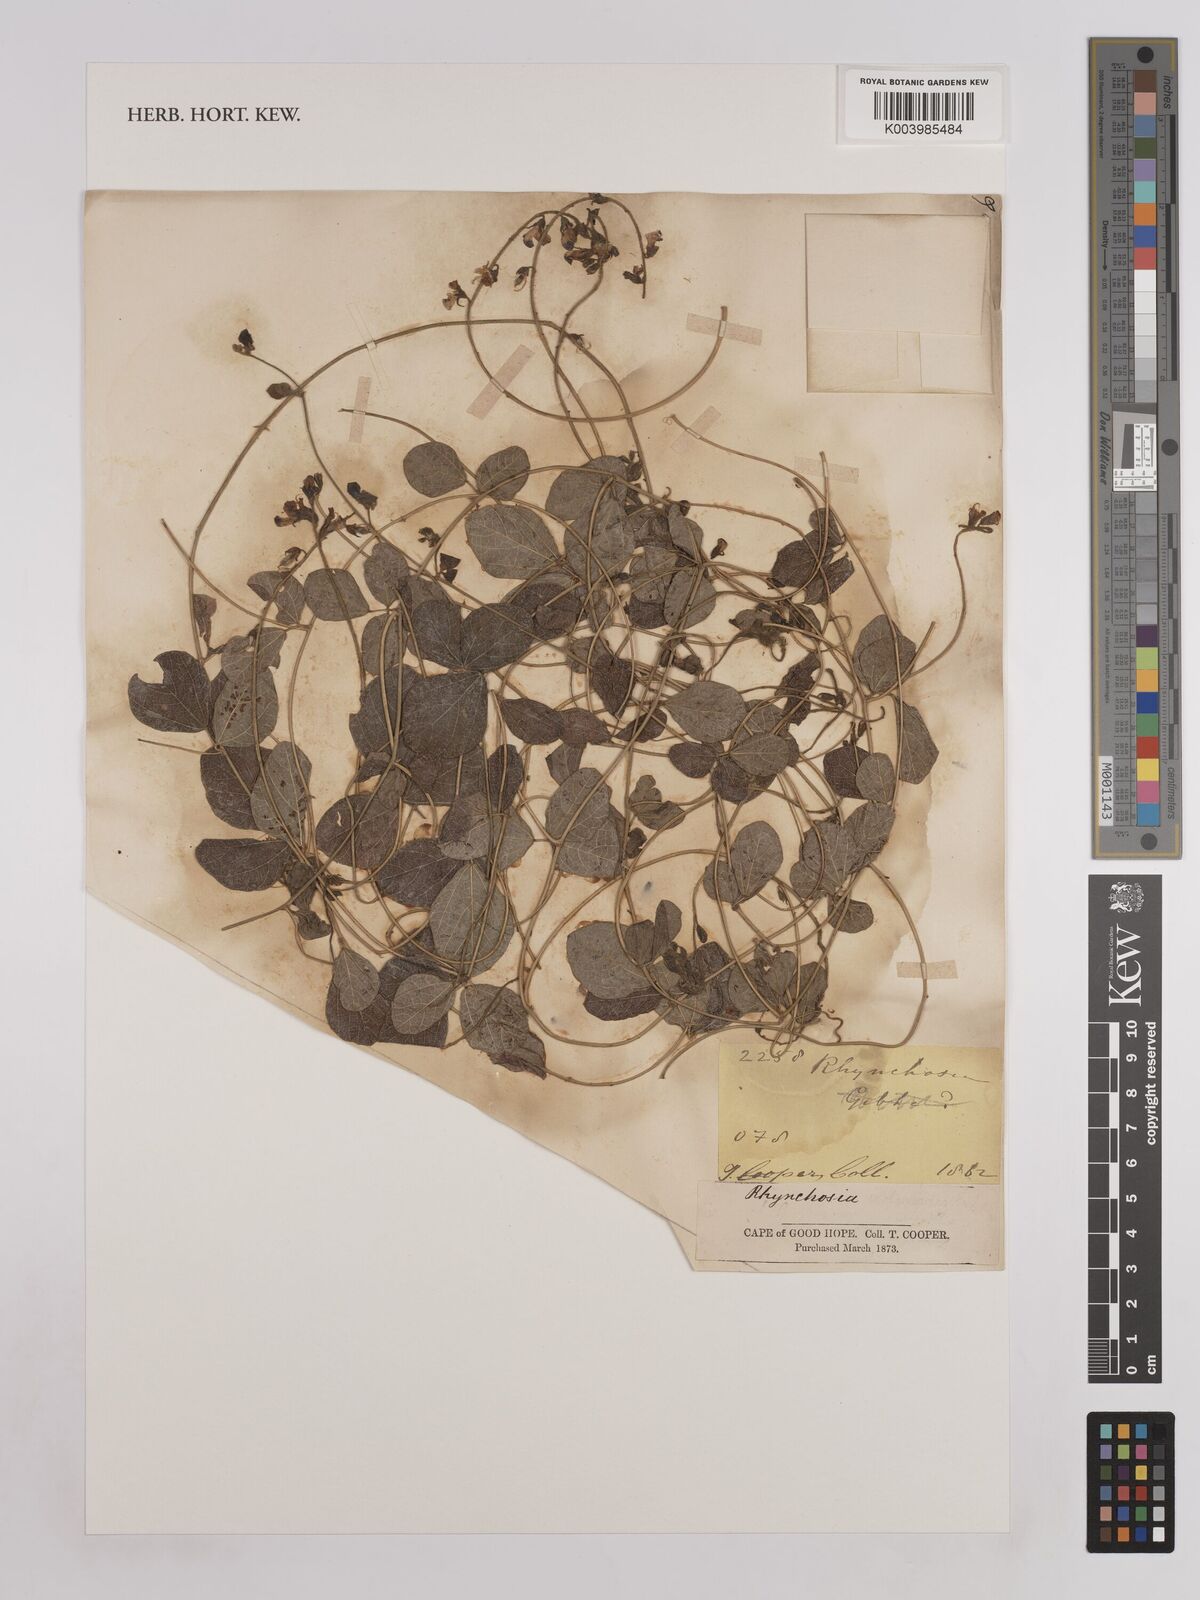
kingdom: Plantae
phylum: Tracheophyta
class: Magnoliopsida
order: Fabales
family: Fabaceae
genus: Rhynchosia
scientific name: Rhynchosia
